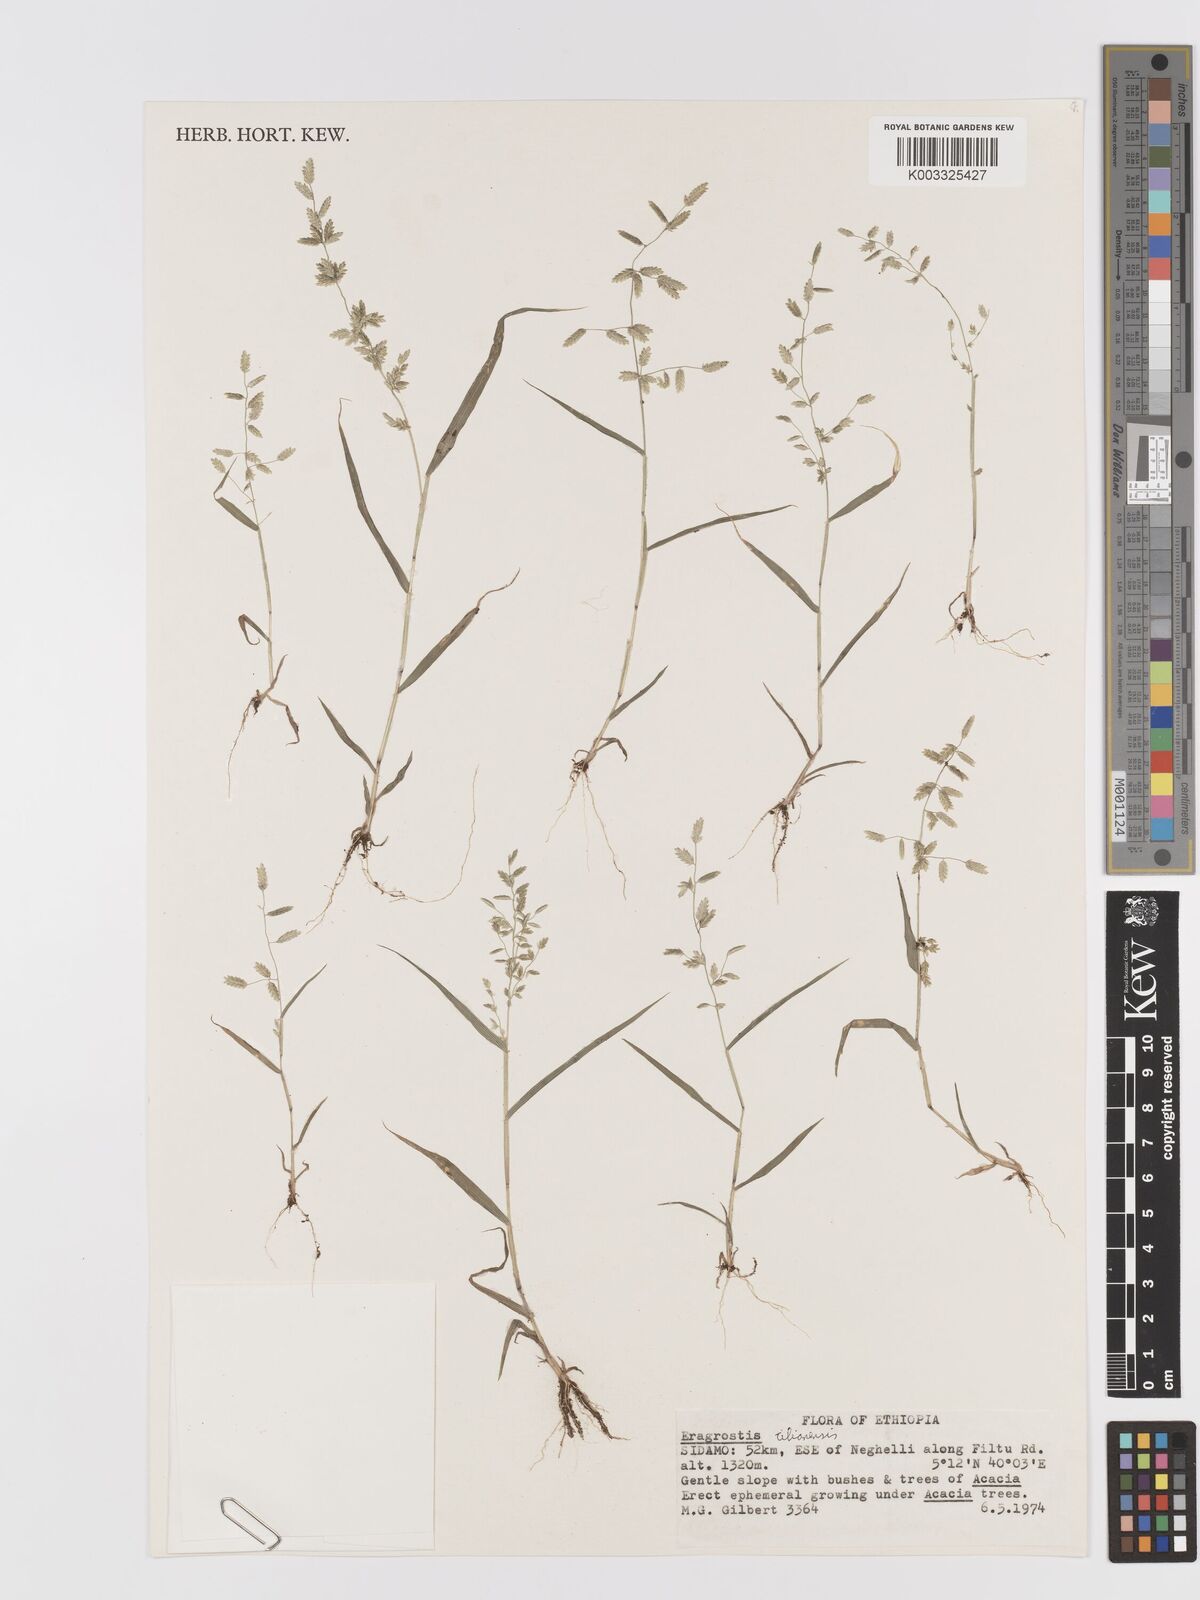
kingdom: Plantae
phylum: Tracheophyta
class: Liliopsida
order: Poales
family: Poaceae
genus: Eragrostis
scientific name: Eragrostis cilianensis
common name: Stinkgrass
